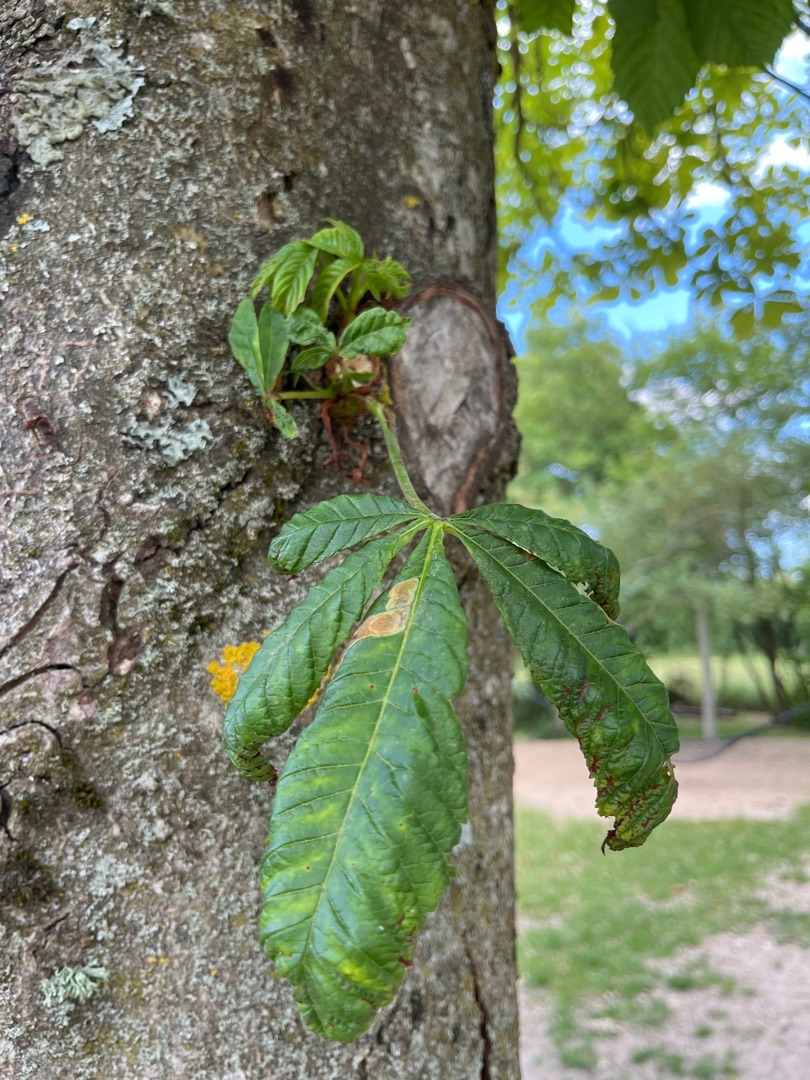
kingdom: Plantae
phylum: Tracheophyta
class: Magnoliopsida
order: Sapindales
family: Sapindaceae
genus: Aesculus
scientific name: Aesculus hippocastanum
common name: Hestekastanie
